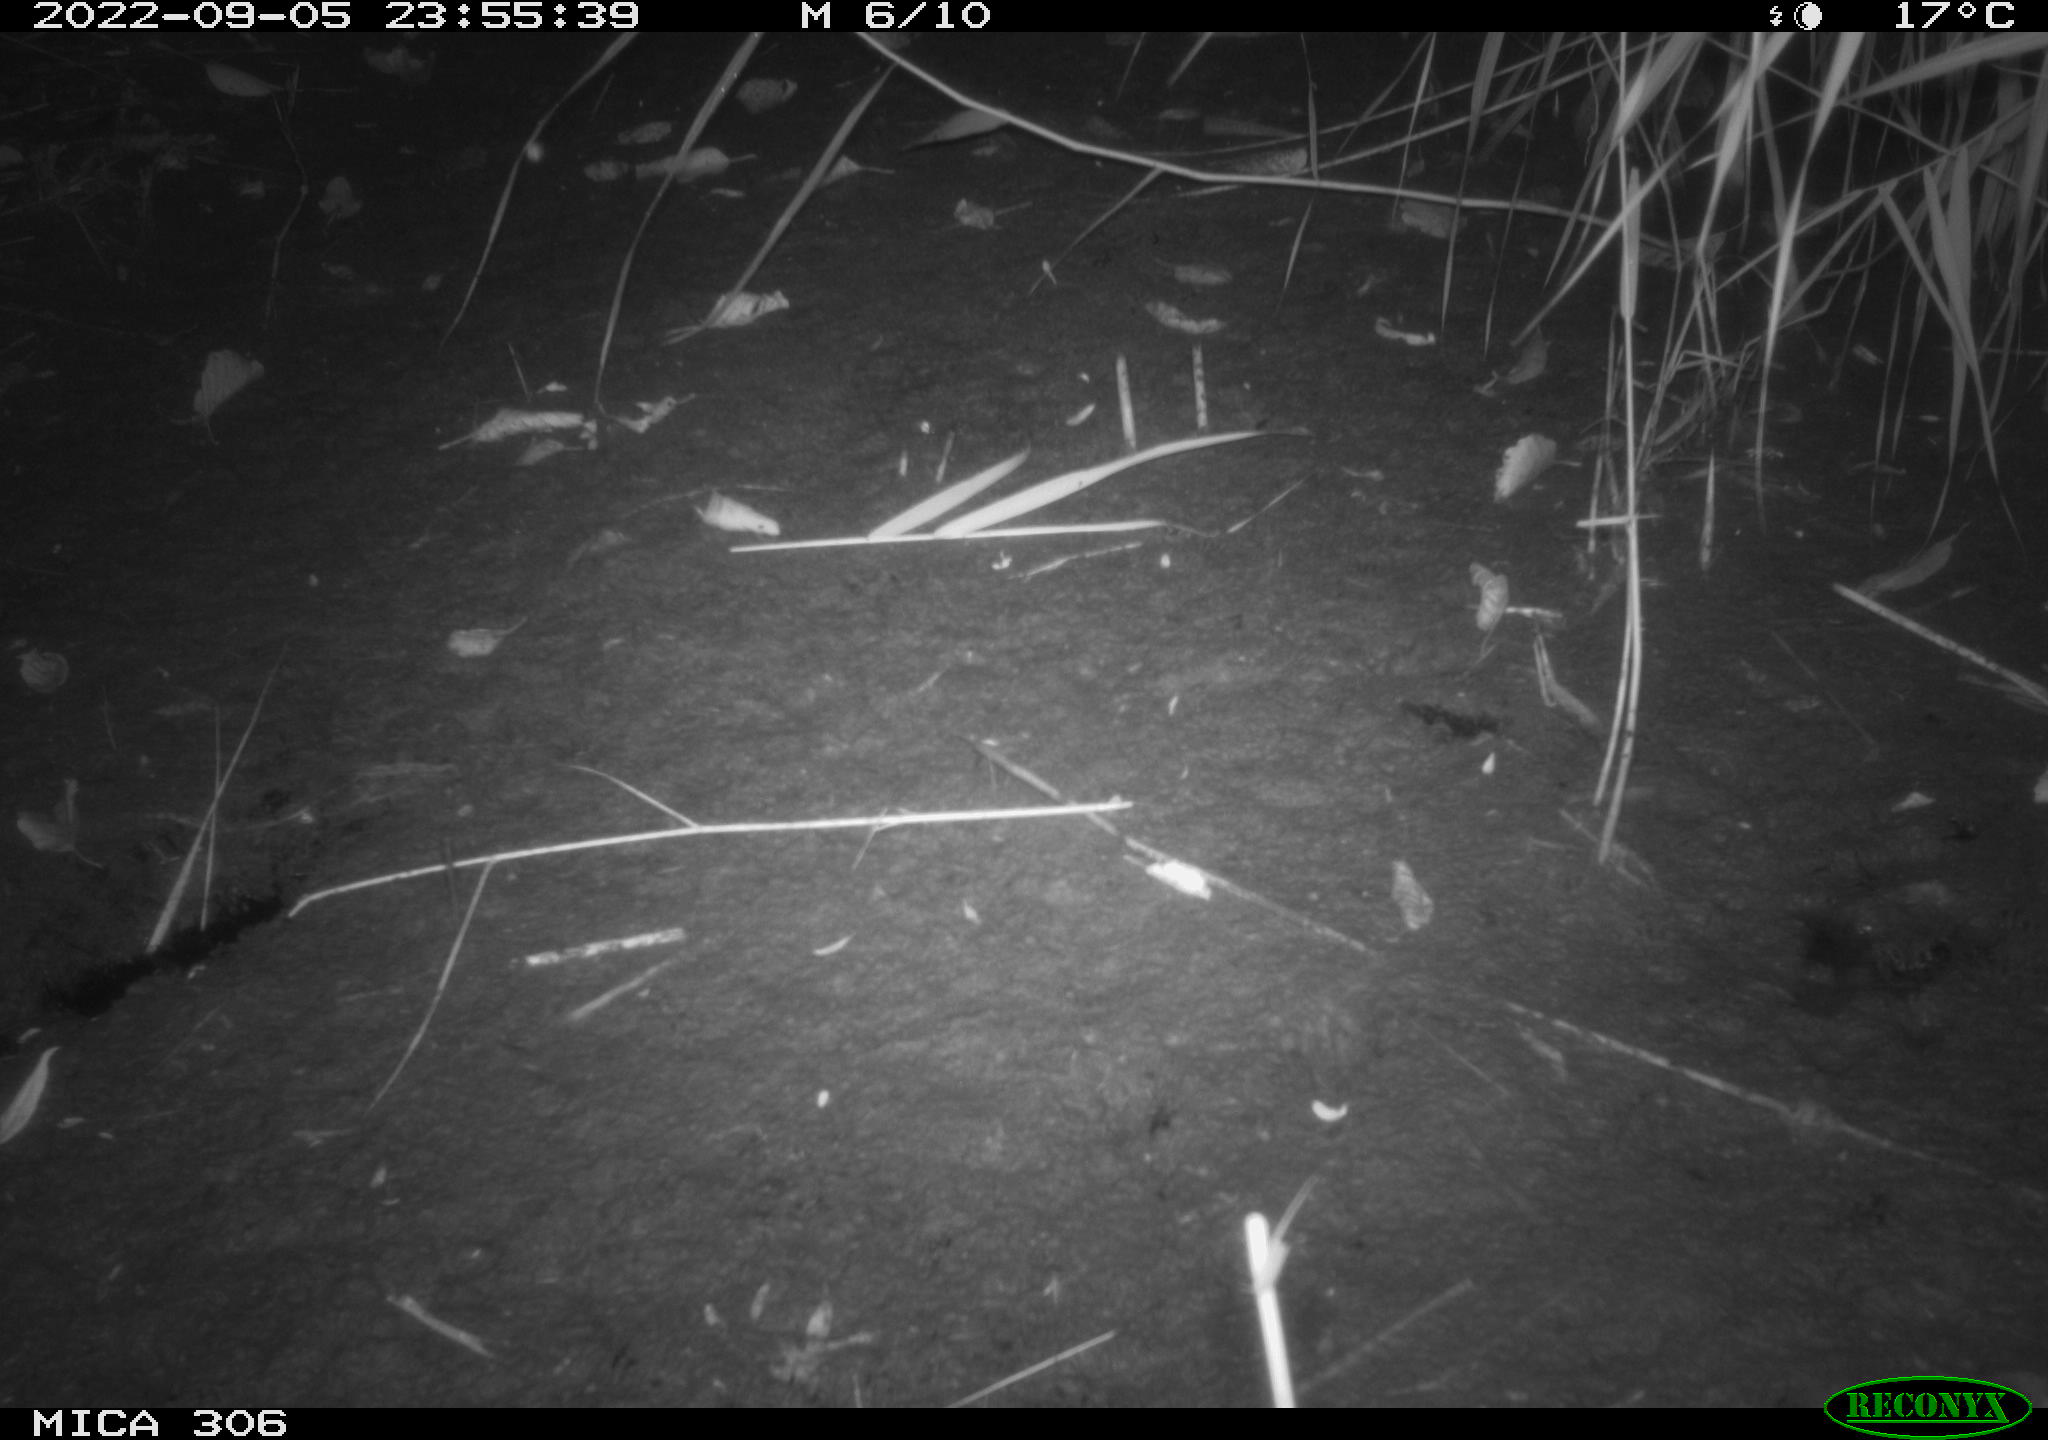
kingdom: Animalia
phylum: Chordata
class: Mammalia
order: Rodentia
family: Muridae
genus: Rattus
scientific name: Rattus norvegicus
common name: Brown rat
